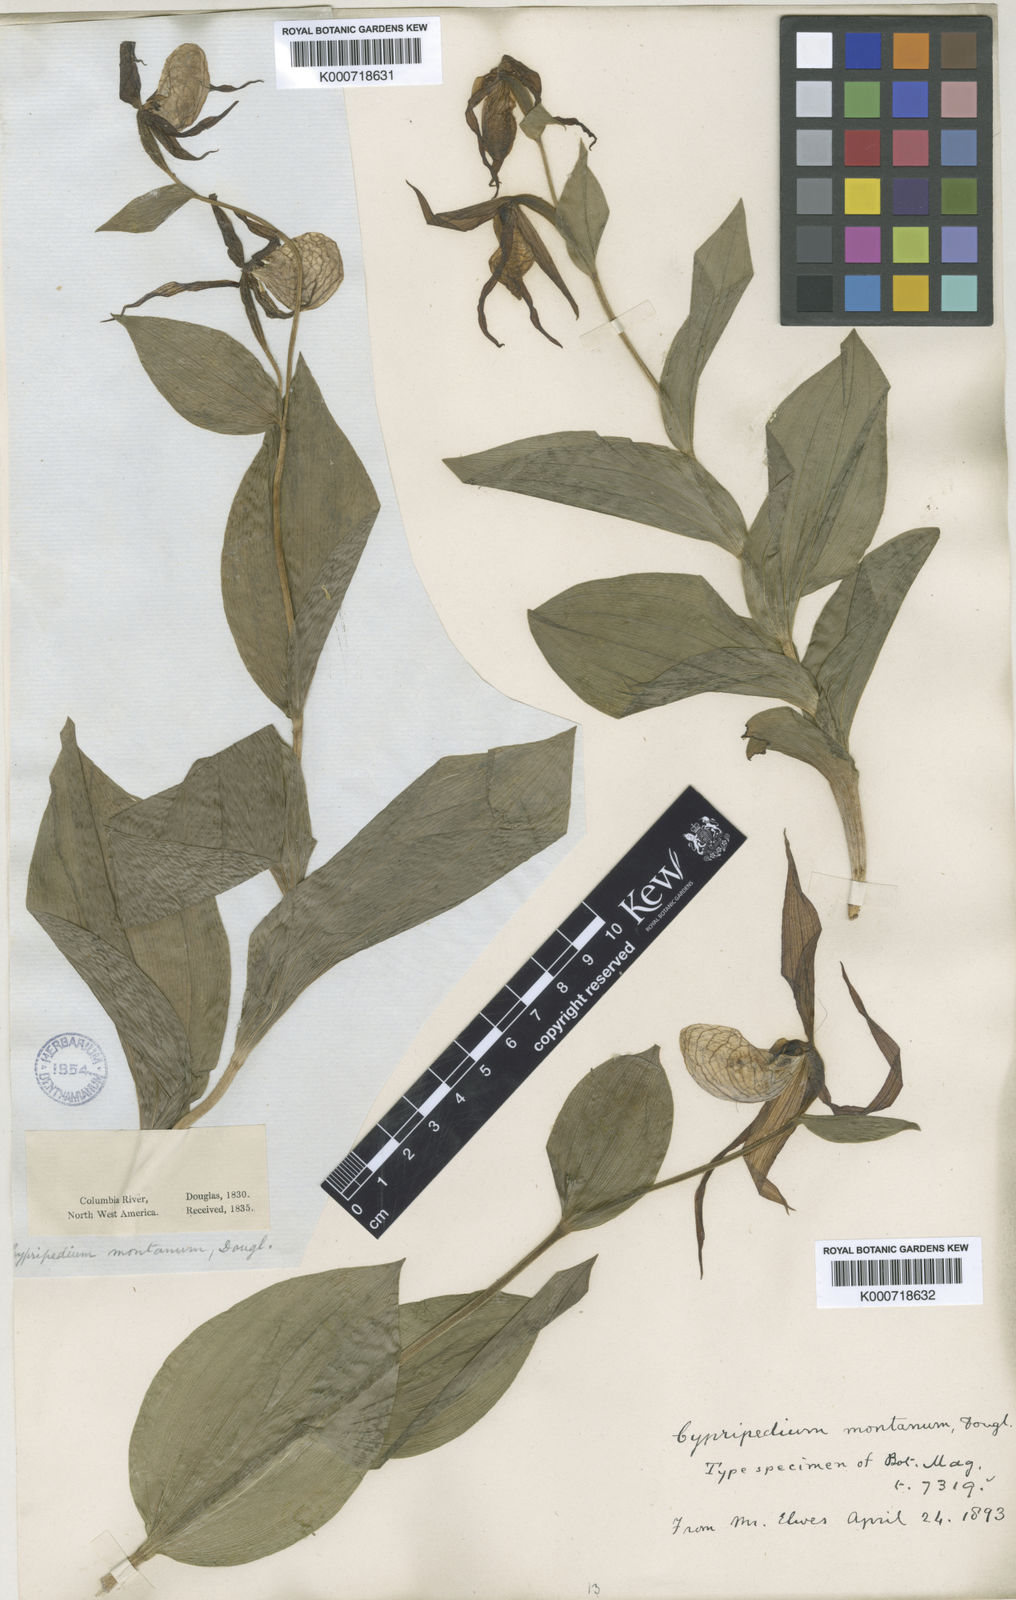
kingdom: Plantae
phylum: Tracheophyta
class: Liliopsida
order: Asparagales
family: Orchidaceae
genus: Cypripedium
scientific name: Cypripedium montanum
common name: Mountain lady's-slipper
